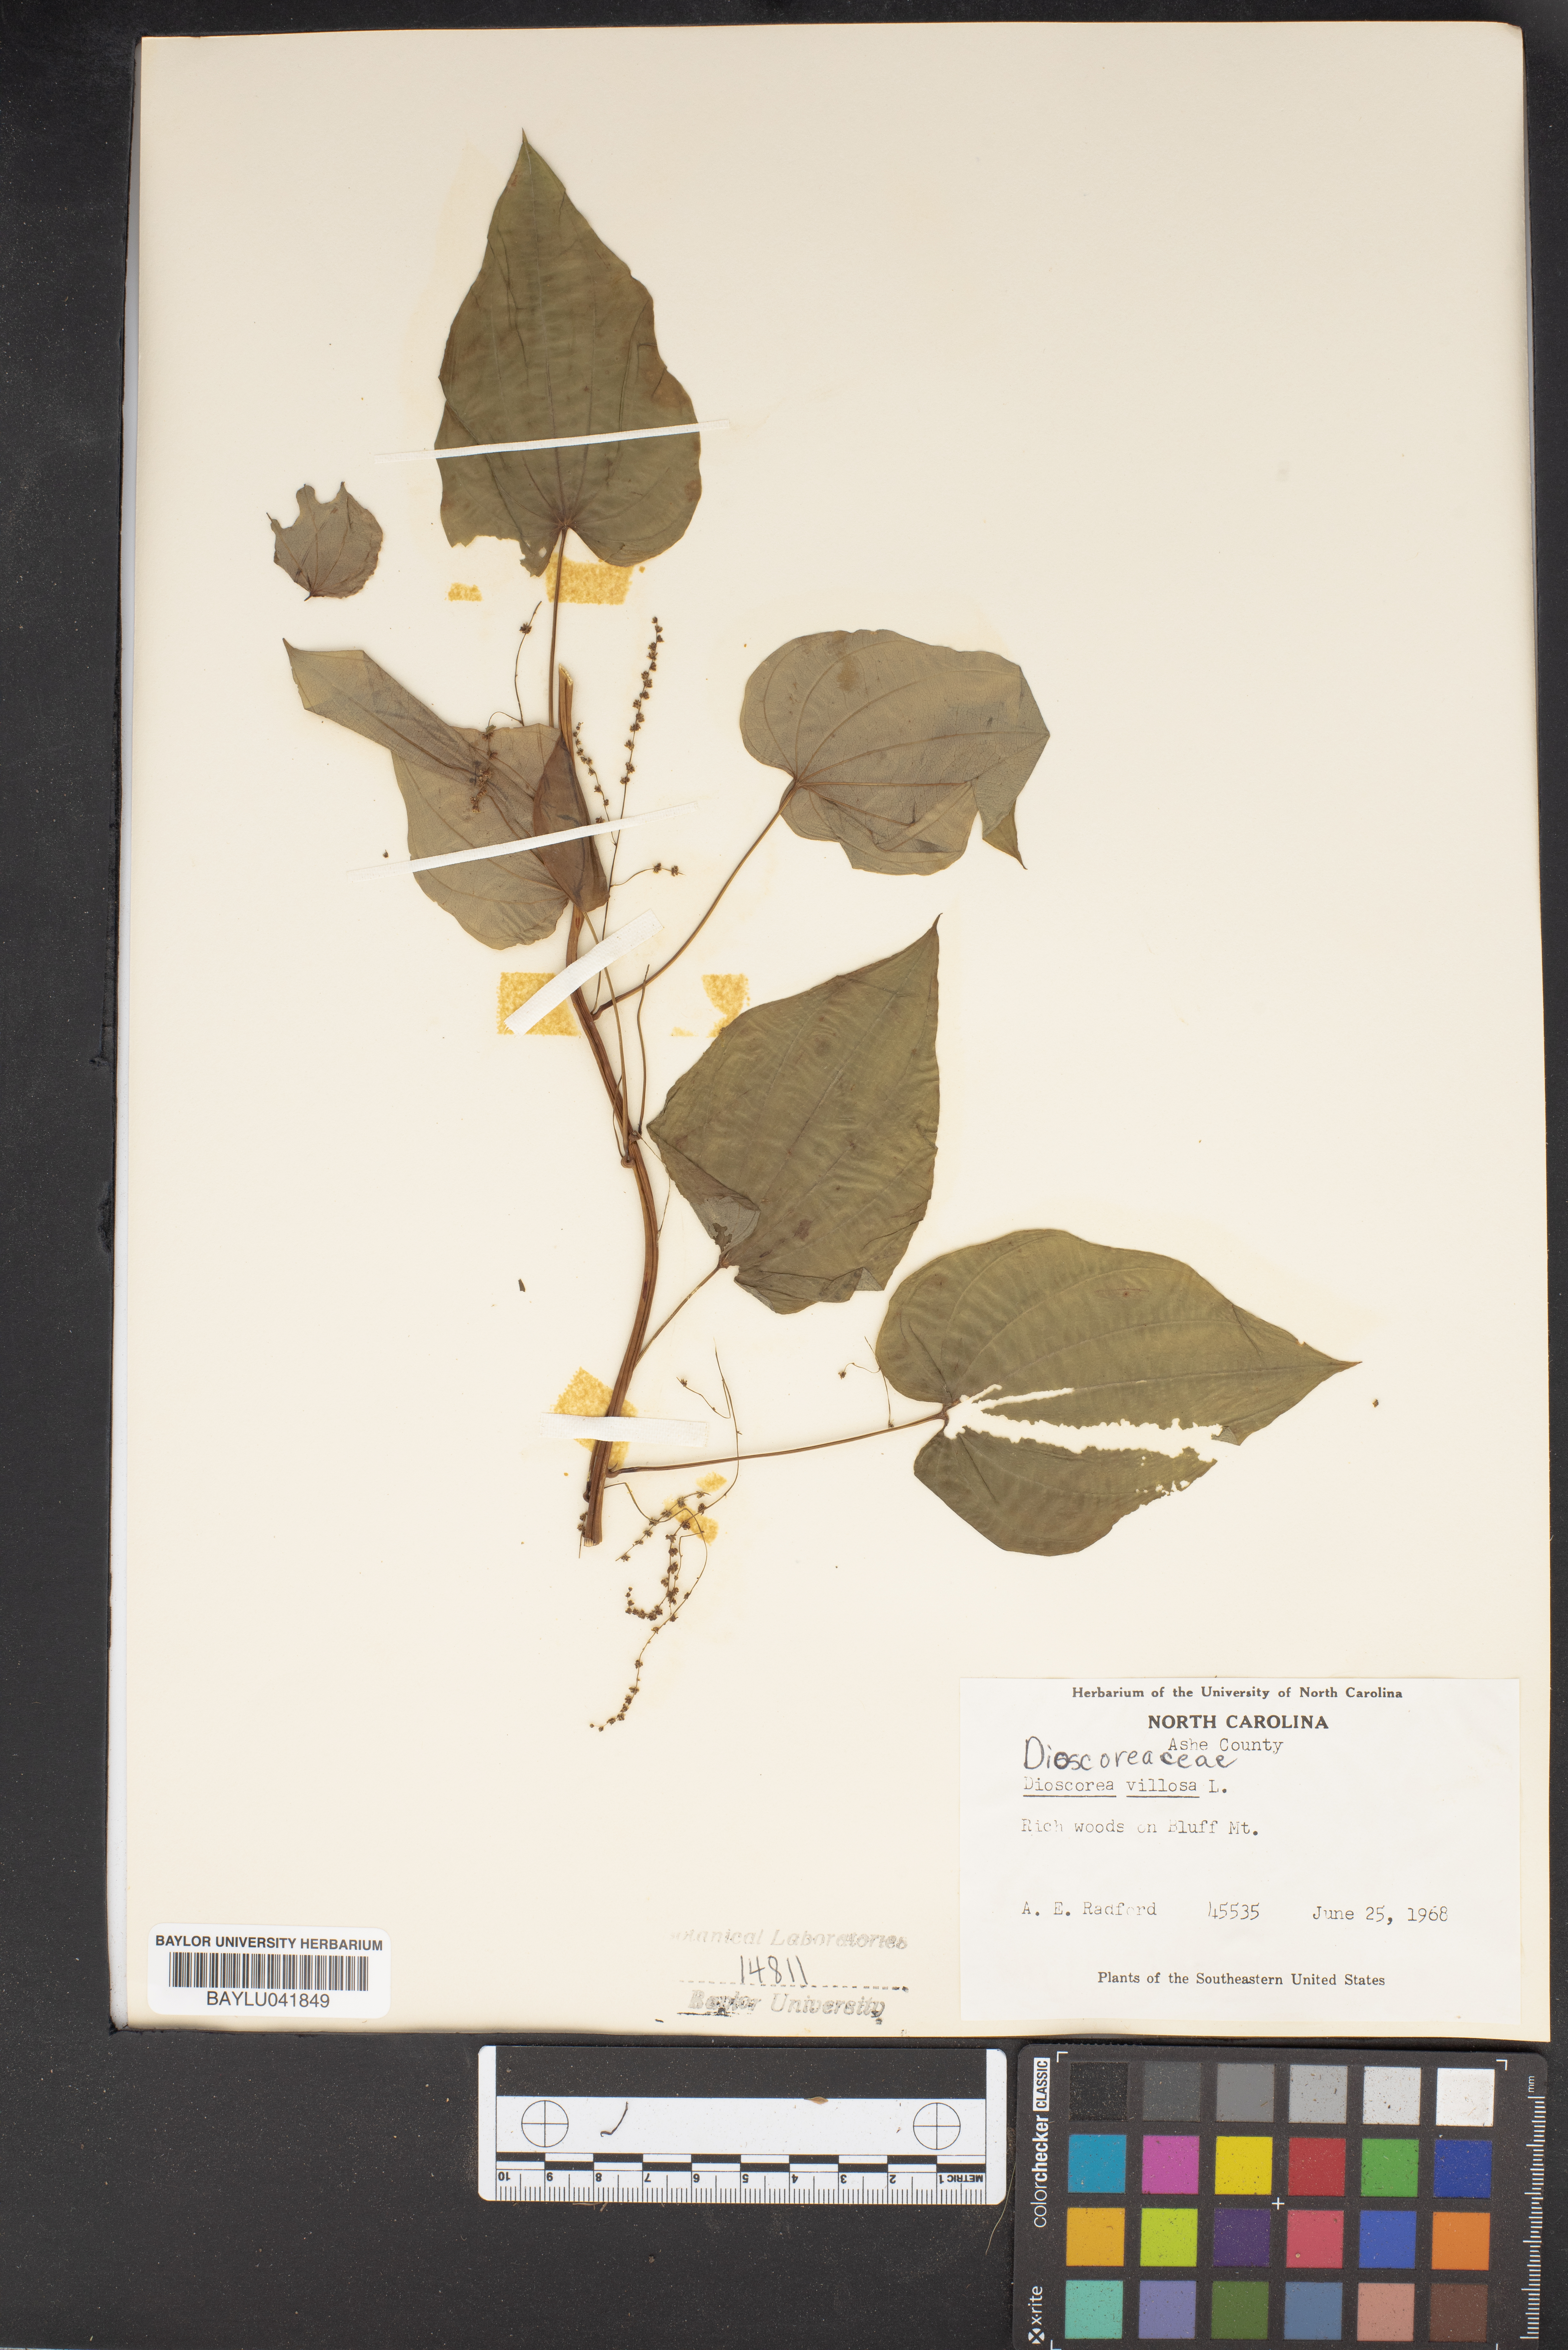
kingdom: Plantae
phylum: Tracheophyta
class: Liliopsida
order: Dioscoreales
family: Dioscoreaceae
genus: Dioscorea
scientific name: Dioscorea villosa
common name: Wild yam
